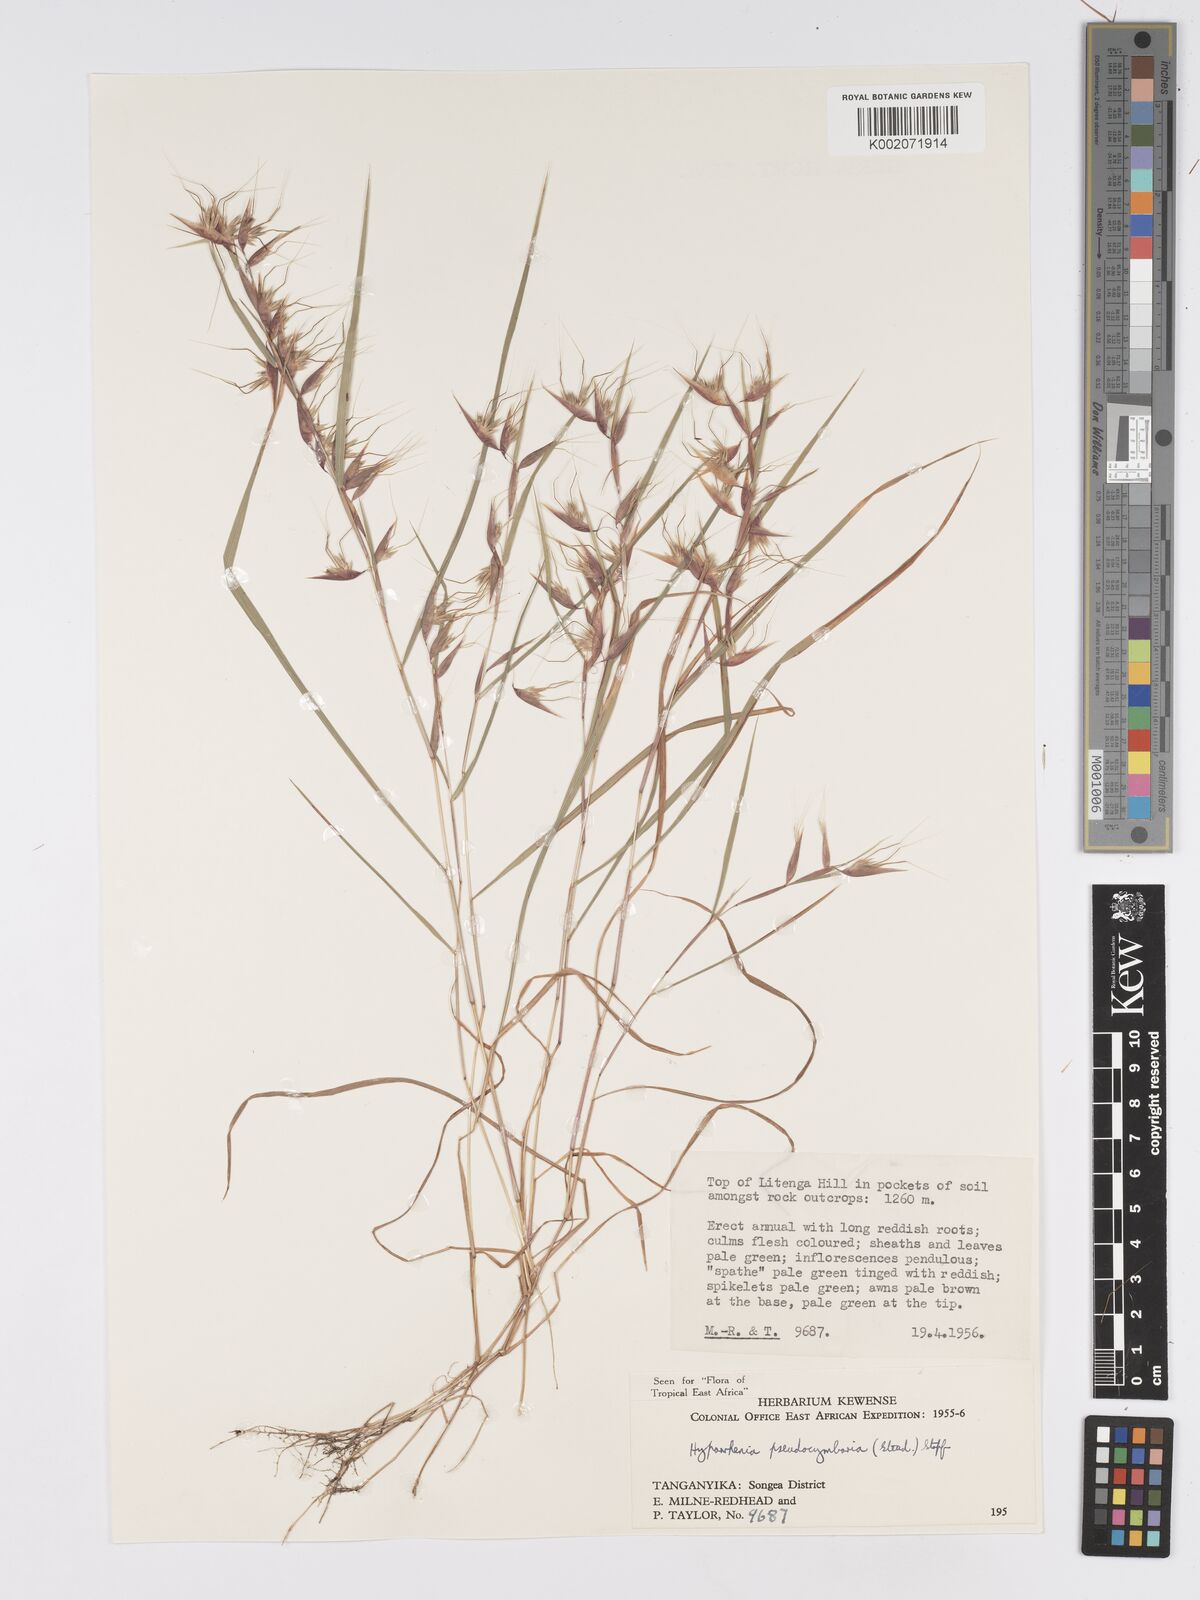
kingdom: Plantae
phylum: Tracheophyta
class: Liliopsida
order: Poales
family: Poaceae
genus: Hyparrhenia
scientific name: Hyparrhenia anthistirioides
